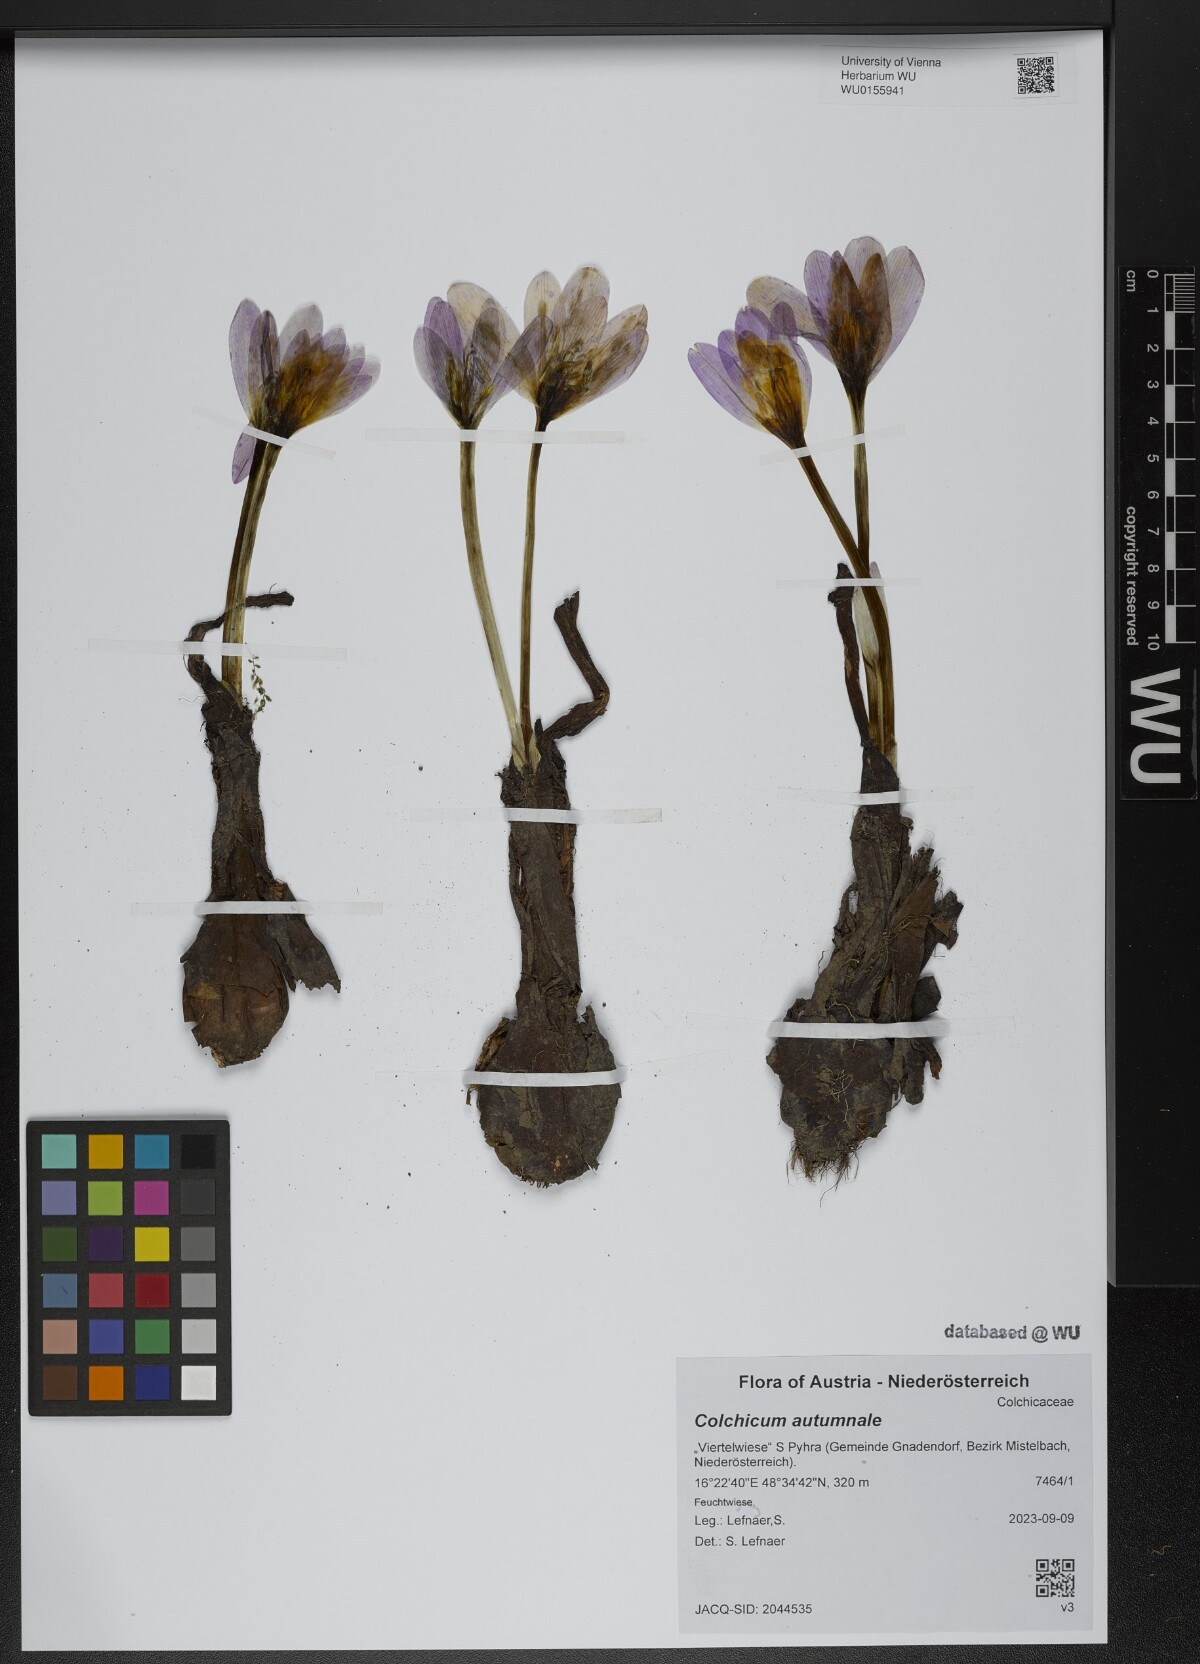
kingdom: Plantae
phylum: Tracheophyta
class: Liliopsida
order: Liliales
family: Colchicaceae
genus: Colchicum
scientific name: Colchicum autumnale
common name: Autumn crocus
